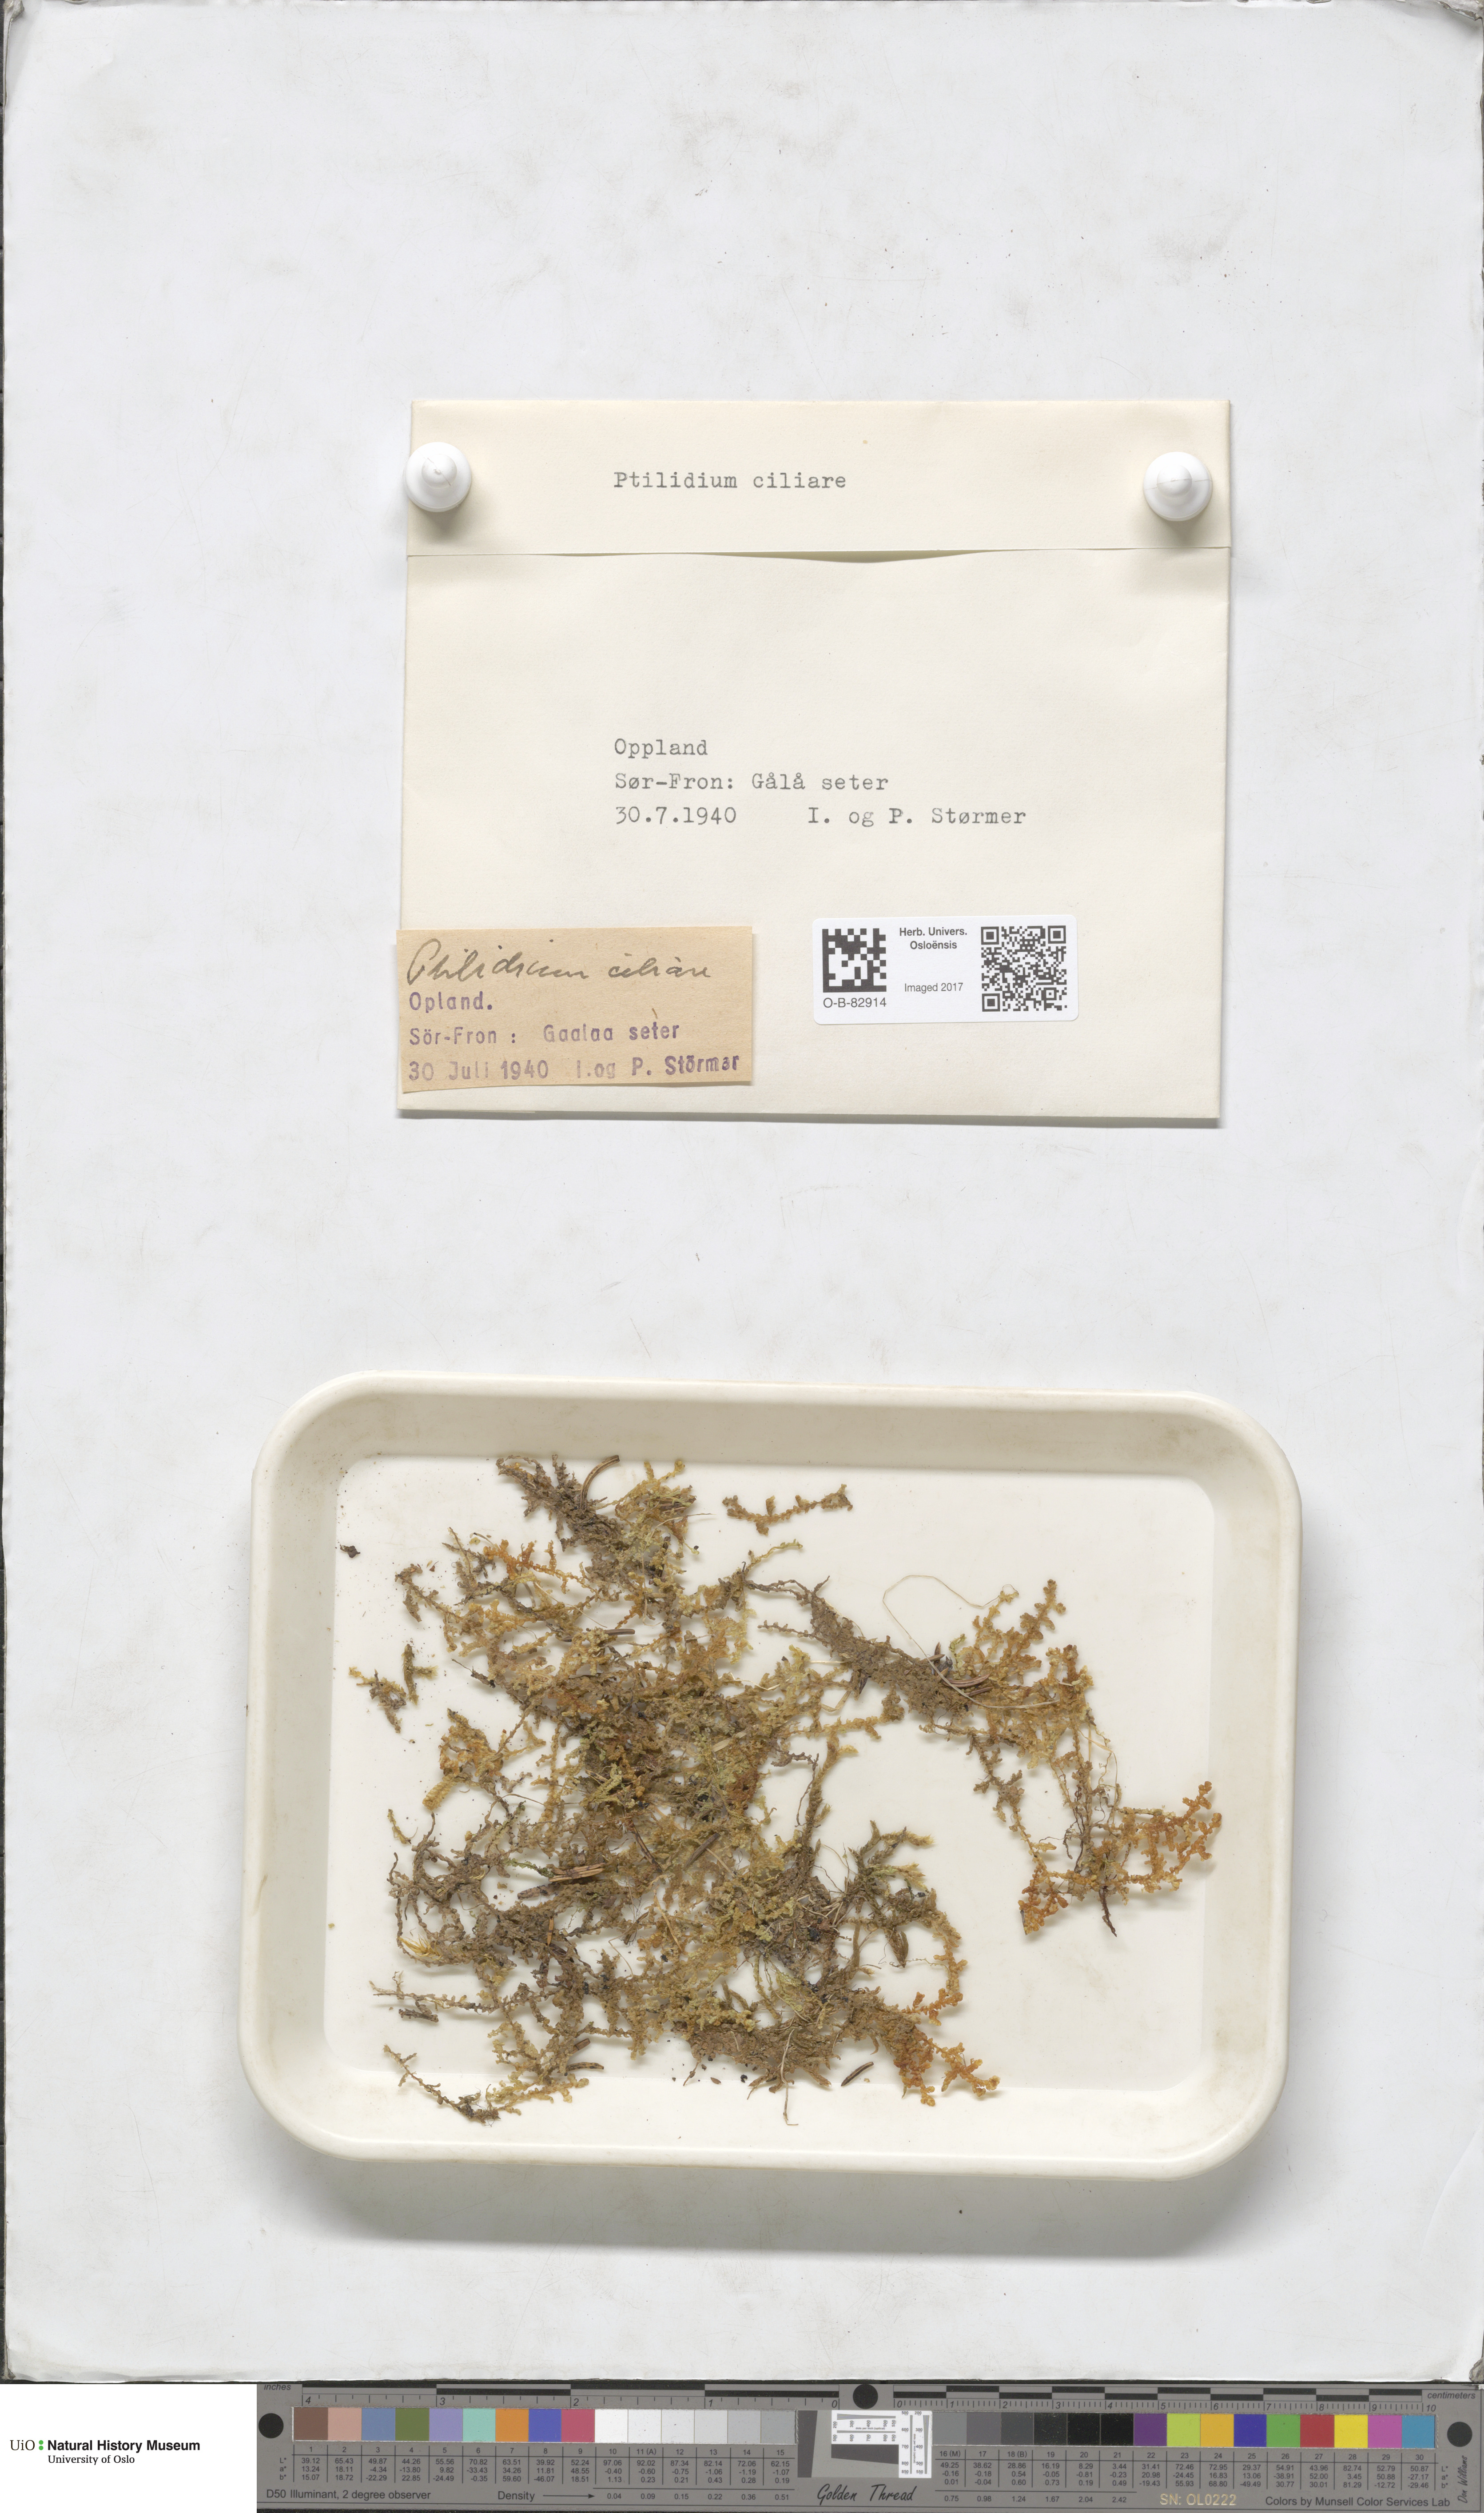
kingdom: Plantae
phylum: Marchantiophyta
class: Jungermanniopsida
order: Ptilidiales
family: Ptilidiaceae
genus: Ptilidium
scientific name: Ptilidium ciliare
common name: Ciliate fringewort
